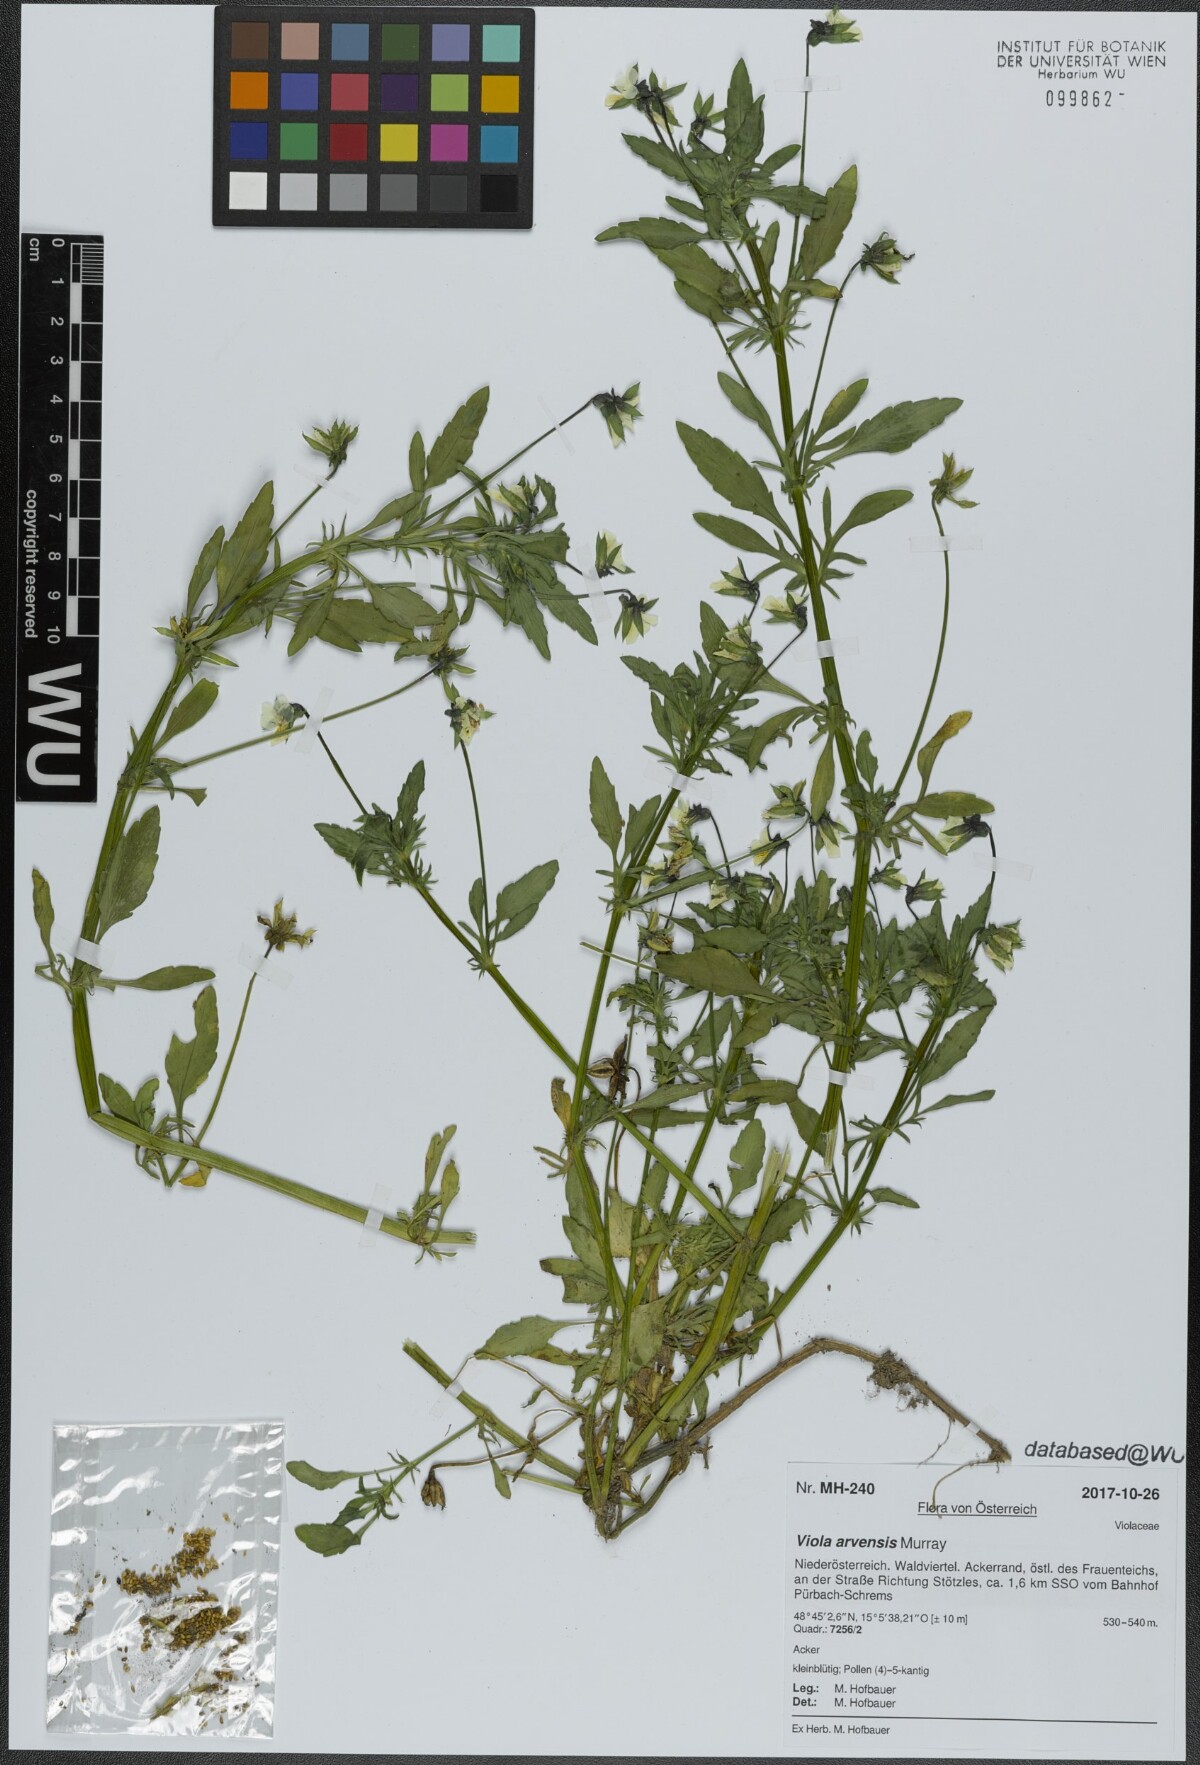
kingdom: Plantae
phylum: Tracheophyta
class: Magnoliopsida
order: Malpighiales
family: Violaceae
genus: Viola
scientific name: Viola arvensis
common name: Field pansy
